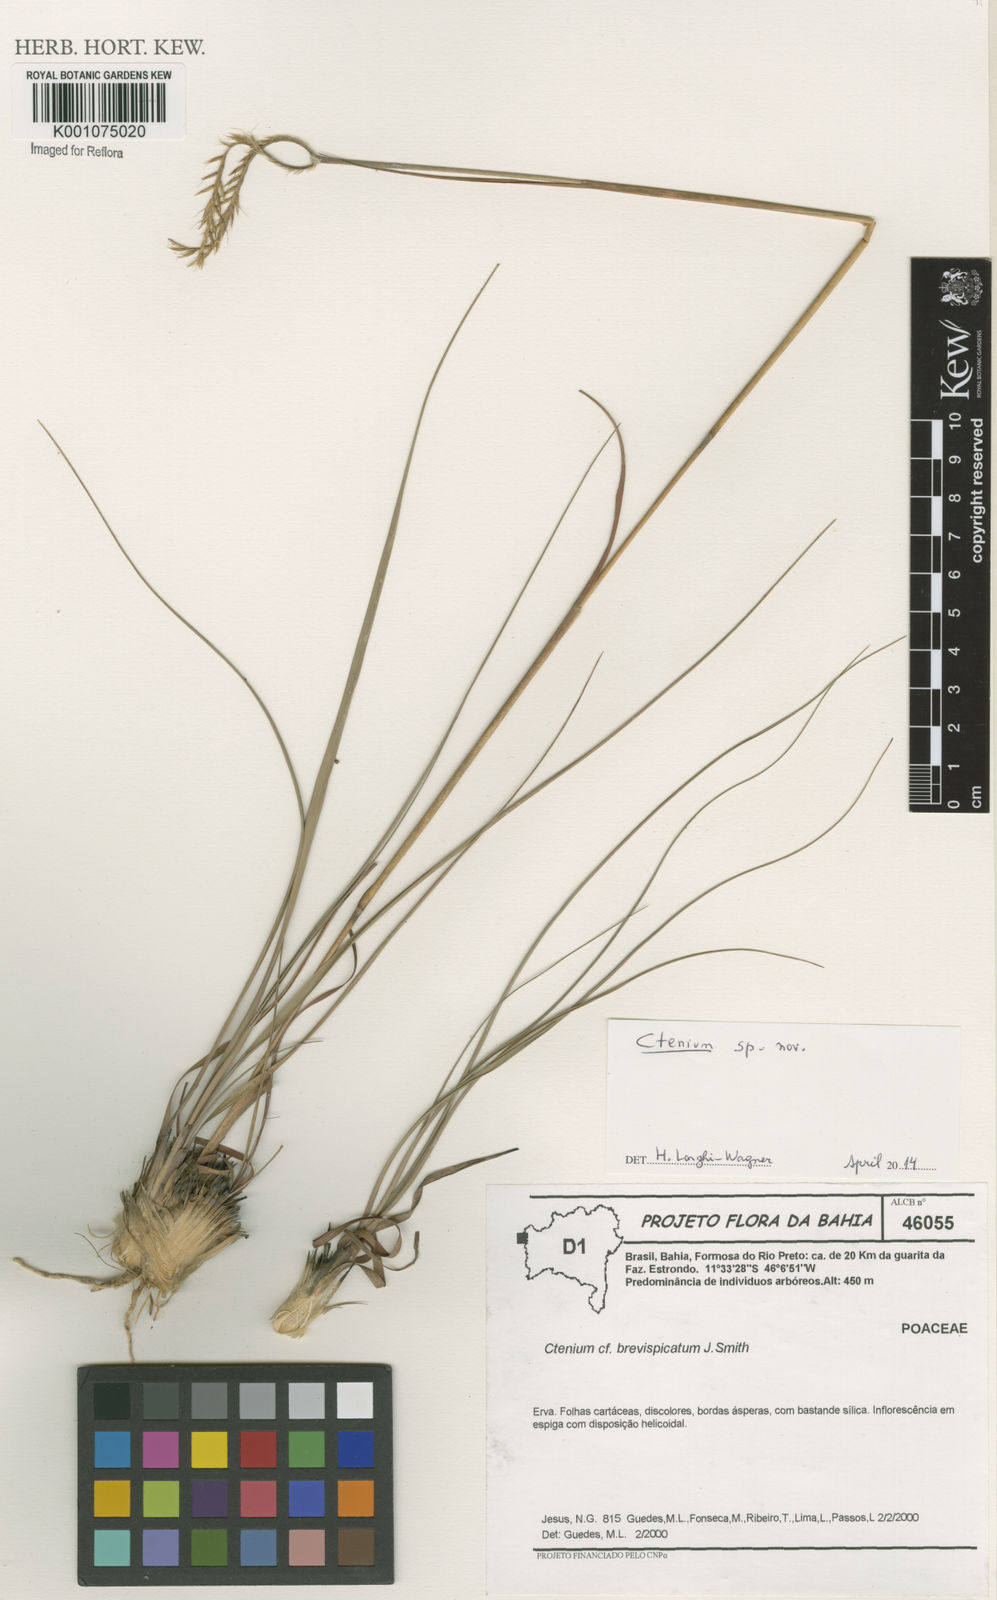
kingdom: Plantae
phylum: Tracheophyta
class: Liliopsida
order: Poales
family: Poaceae
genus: Ctenium
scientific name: Ctenium brevispicatum
